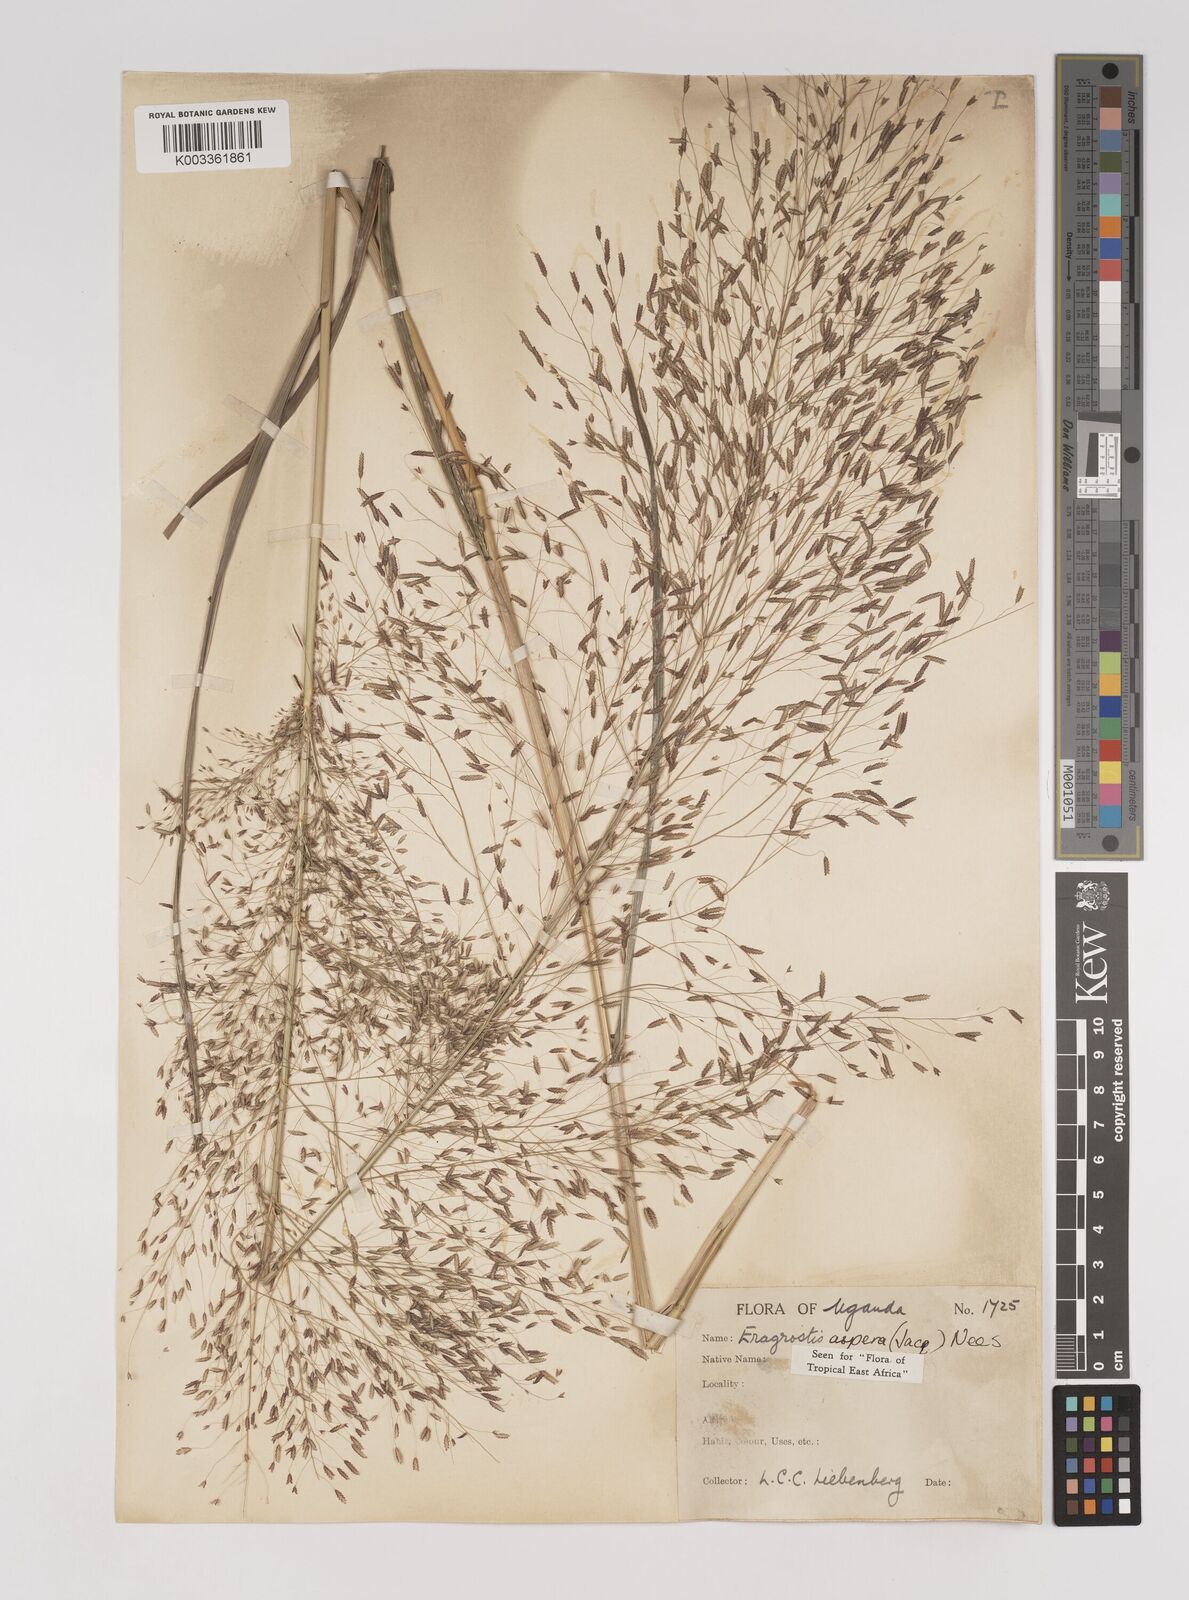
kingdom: Plantae
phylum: Tracheophyta
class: Liliopsida
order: Poales
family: Poaceae
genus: Eragrostis
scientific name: Eragrostis aspera
